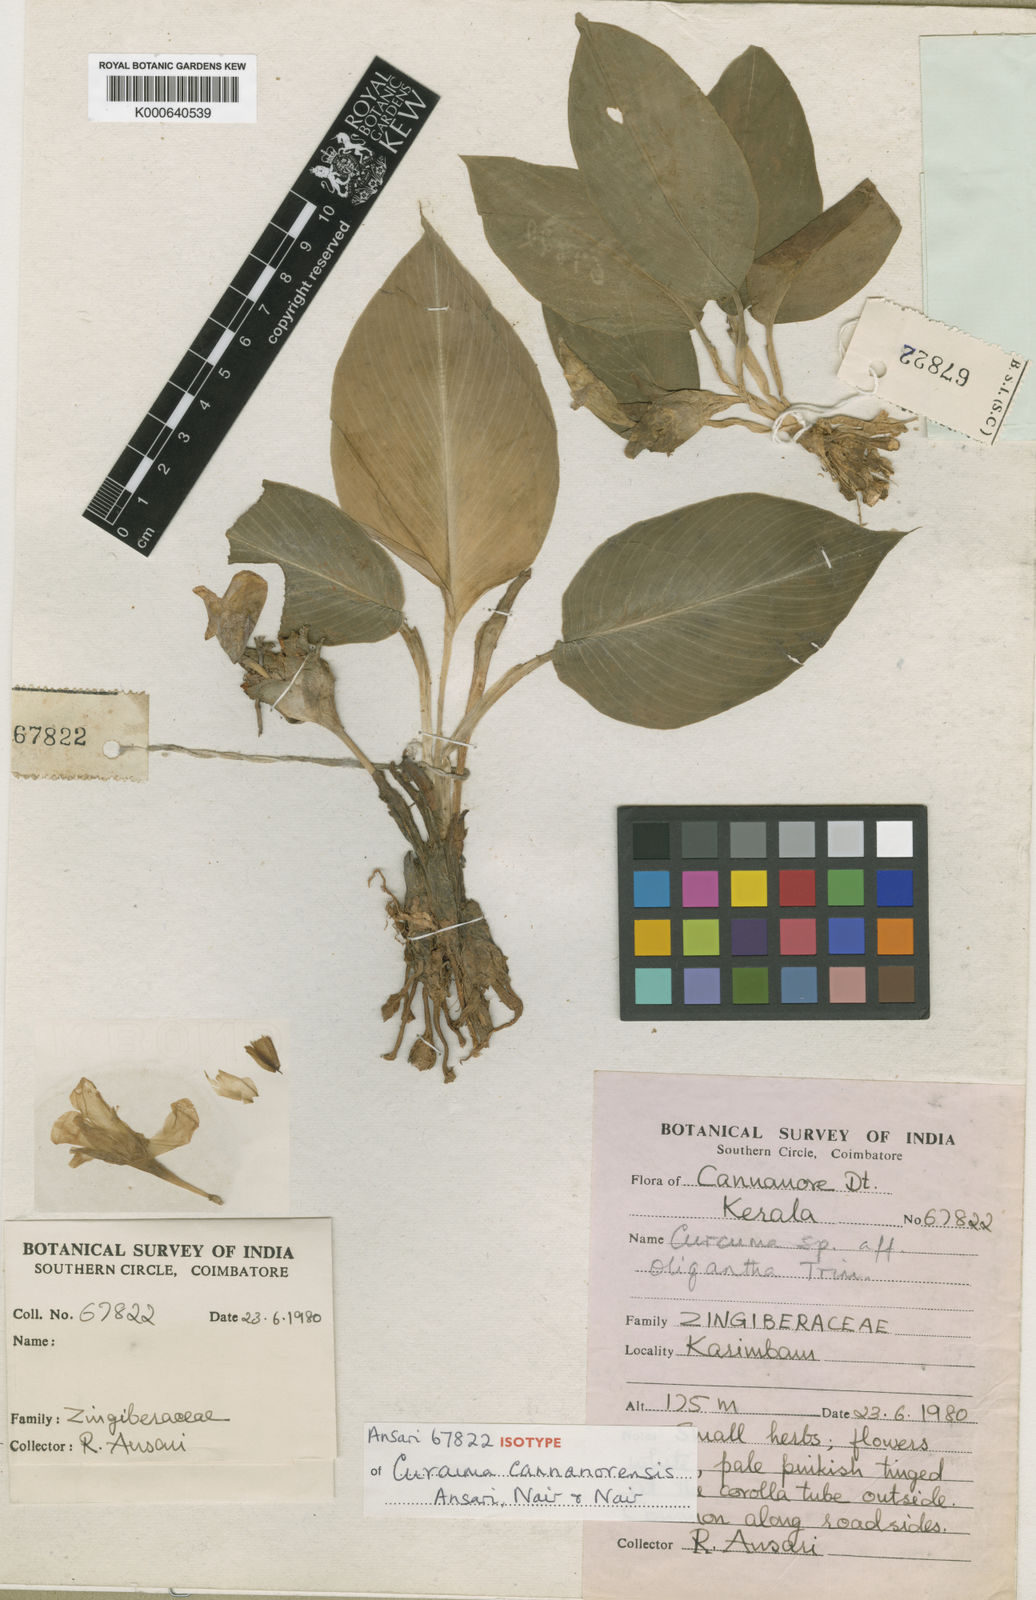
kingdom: Plantae
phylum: Tracheophyta
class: Liliopsida
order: Zingiberales
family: Zingiberaceae
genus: Curcuma
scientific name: Curcuma cannanorensis
